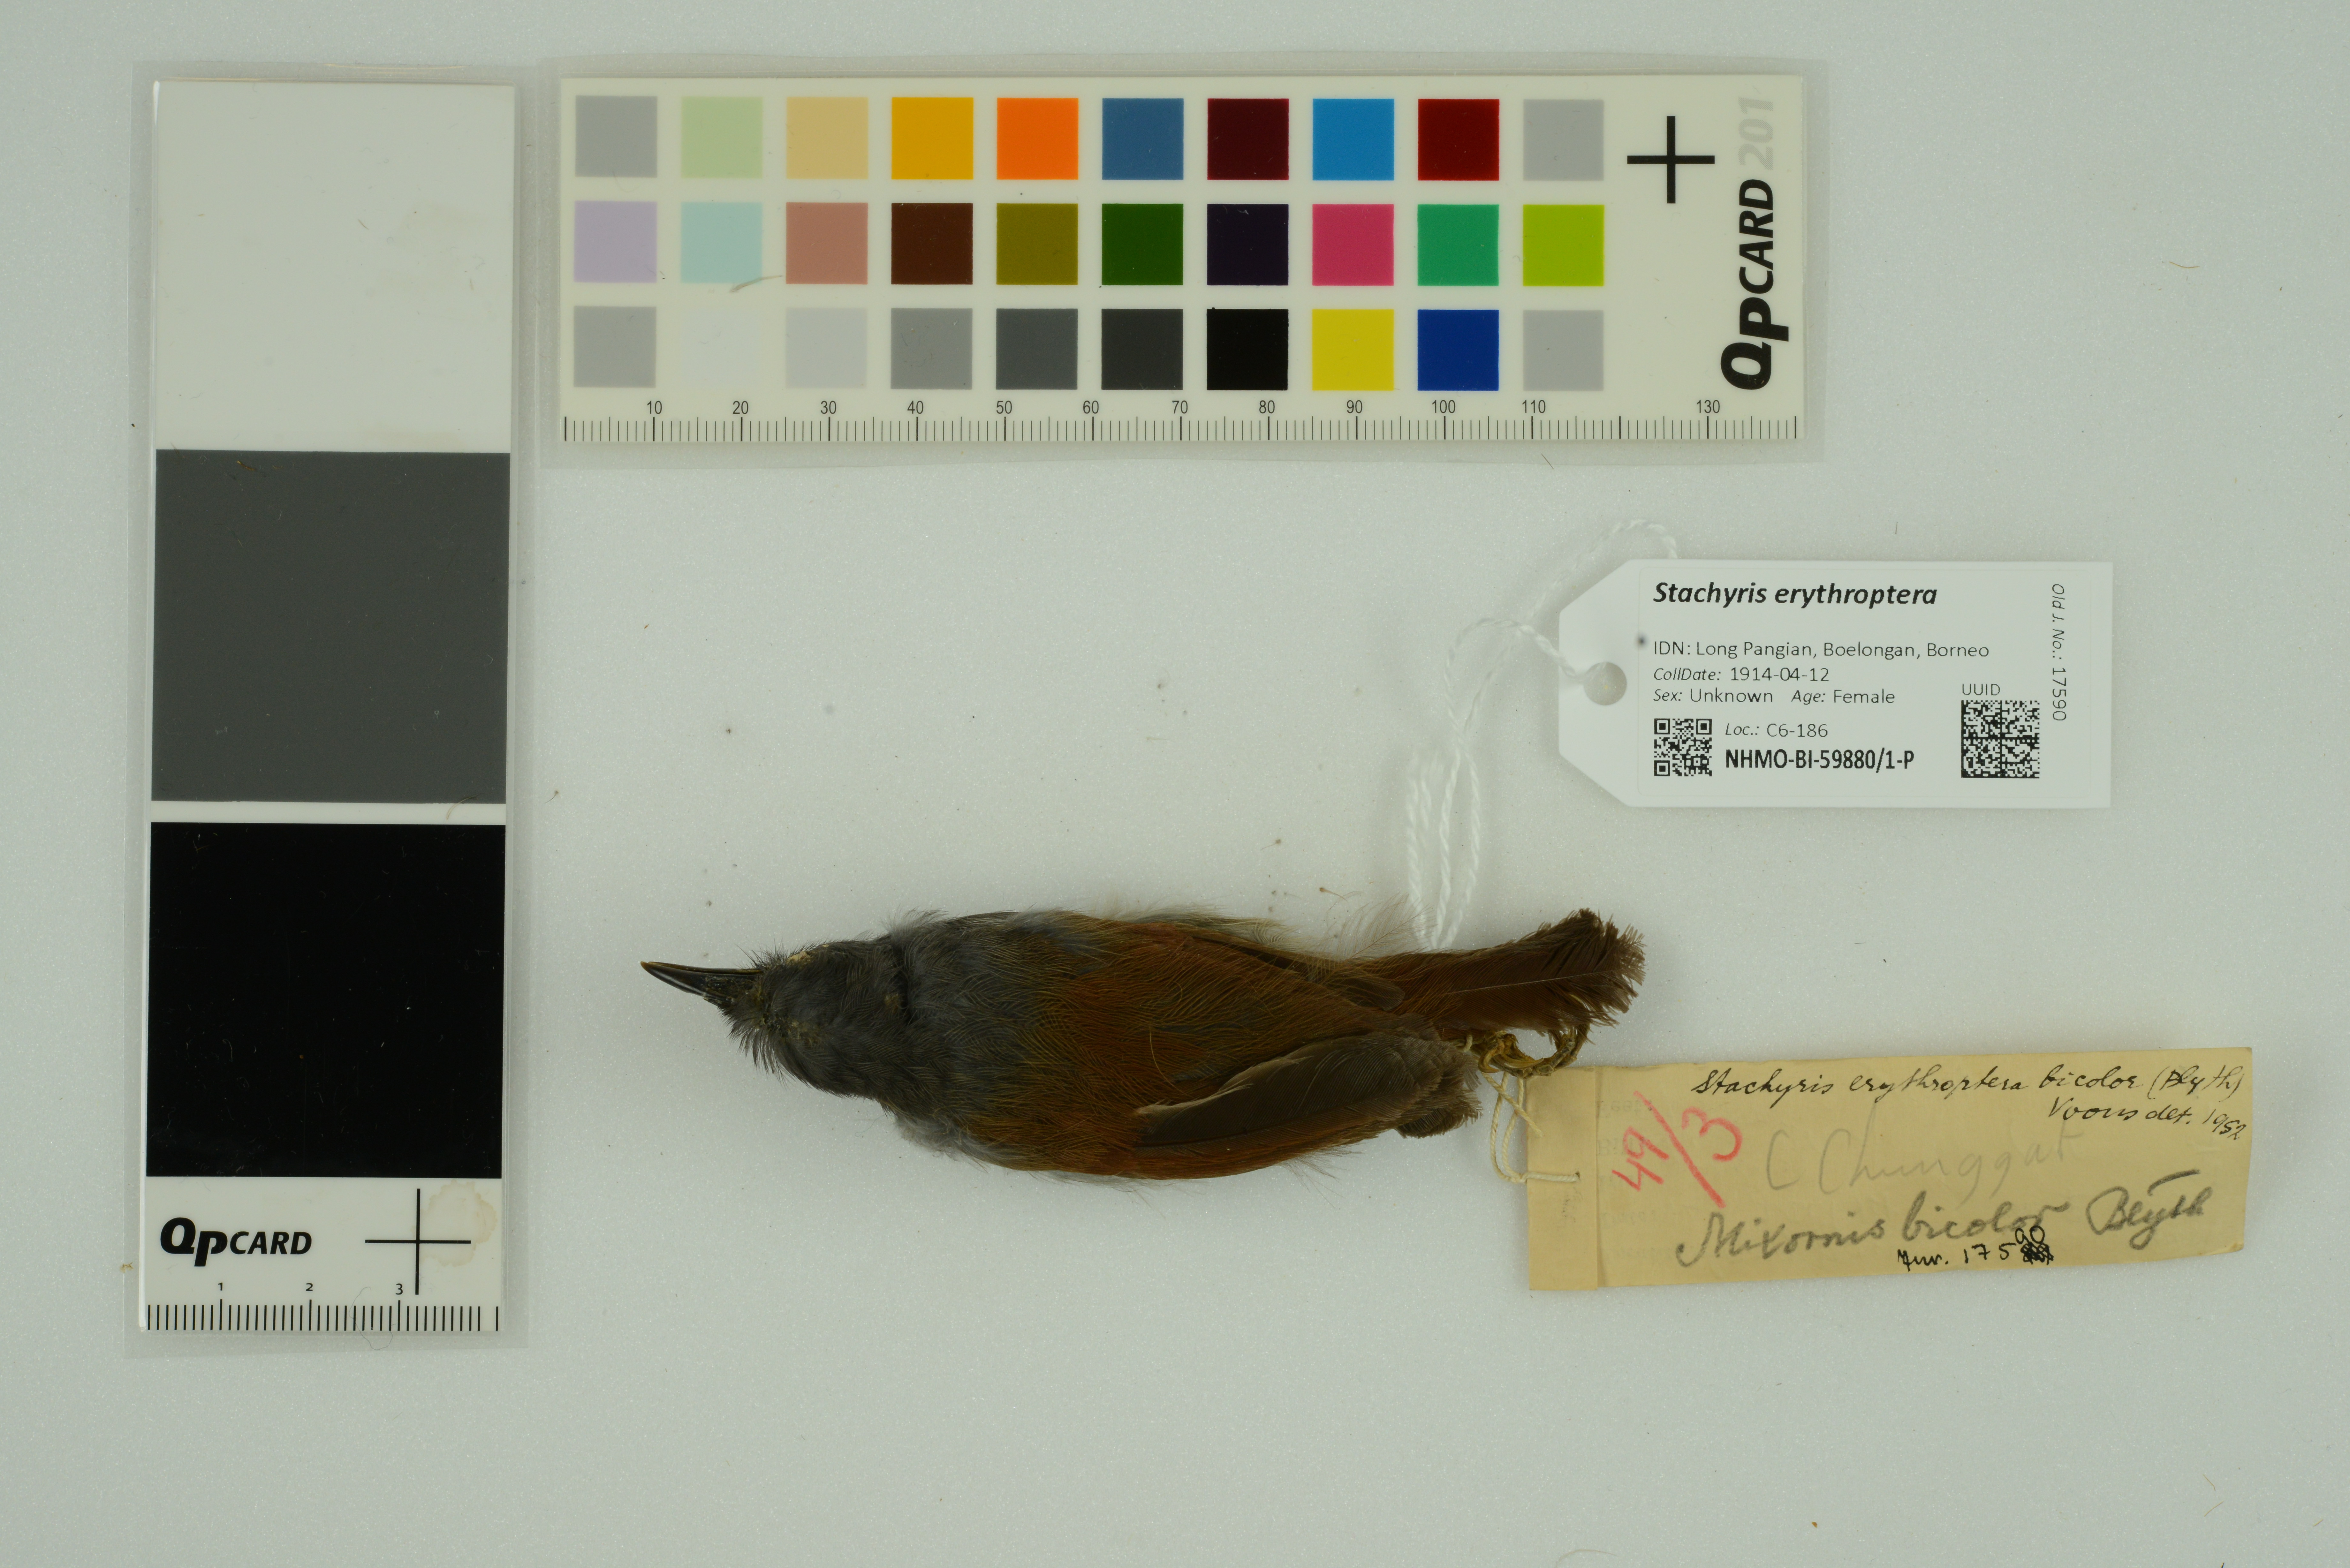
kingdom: Animalia
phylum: Chordata
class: Aves
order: Passeriformes
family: Timaliidae
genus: Stachyris
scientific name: Stachyris erythroptera
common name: Chestnut-winged babbler
